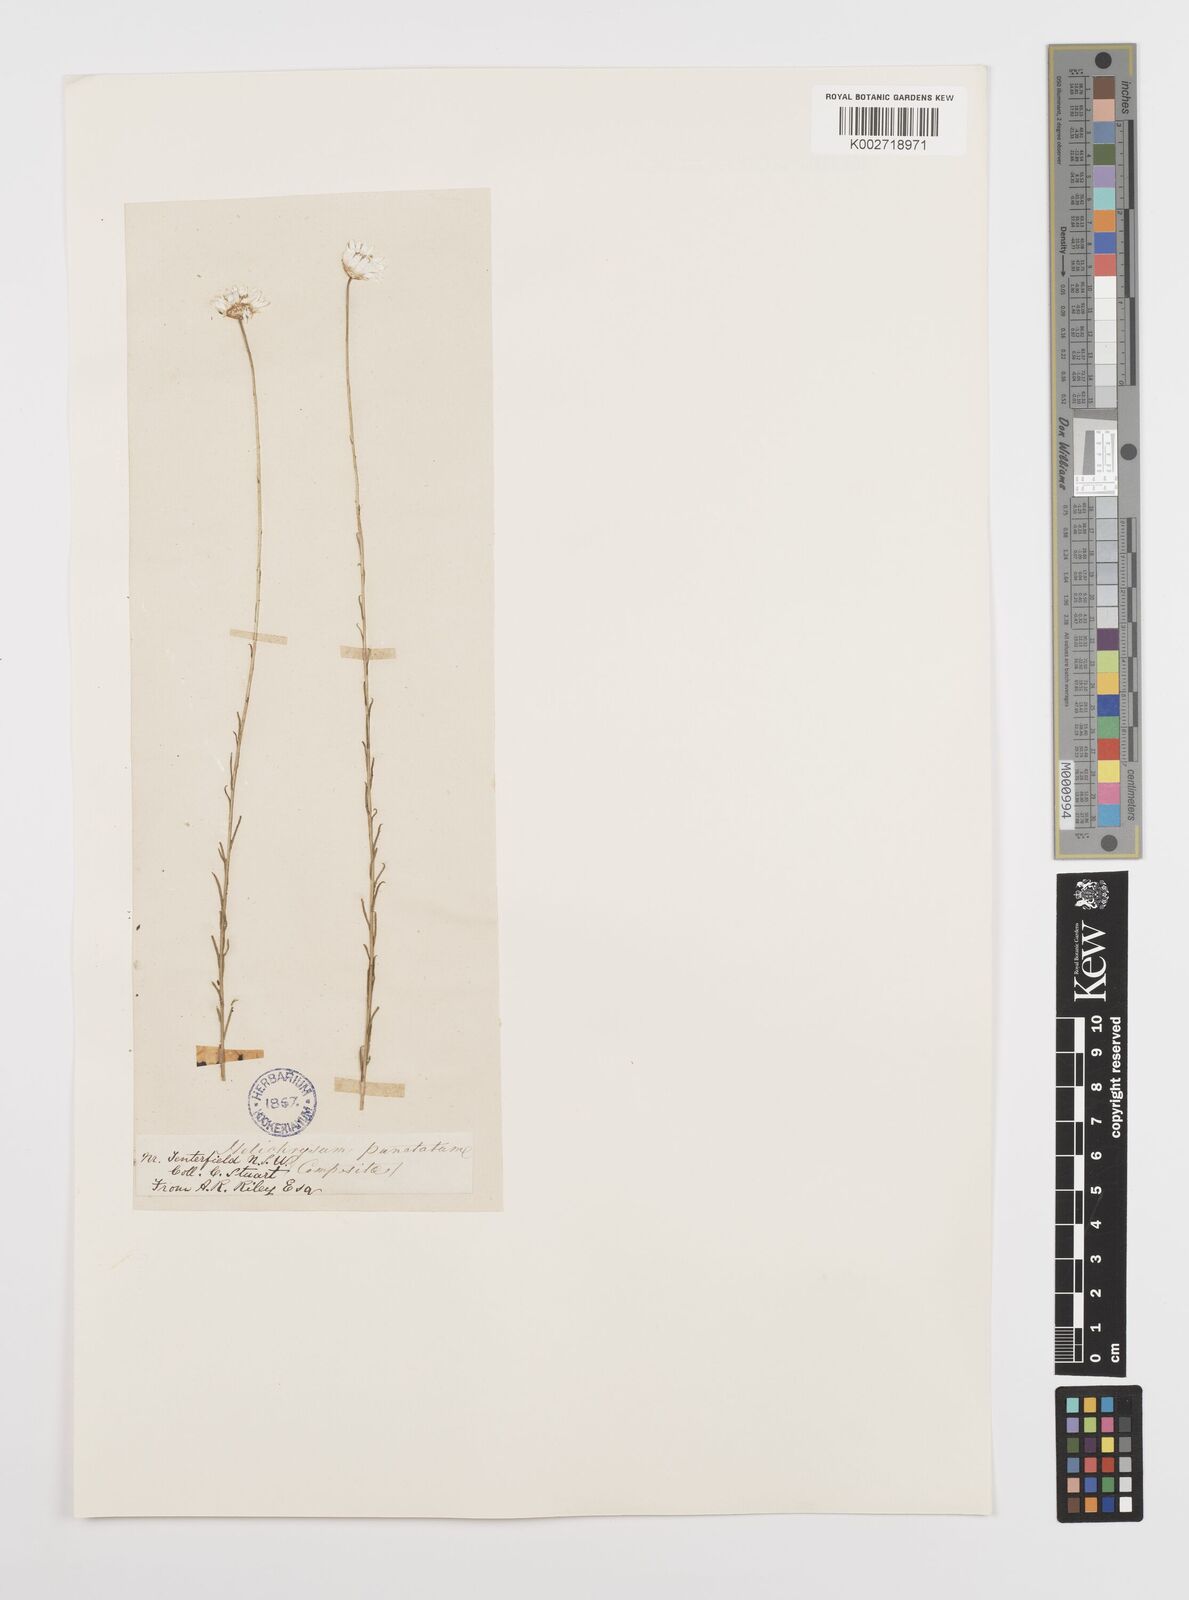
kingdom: Plantae
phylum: Tracheophyta
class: Magnoliopsida
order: Asterales
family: Asteraceae
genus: Rhodanthe
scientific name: Rhodanthe anthemoides
